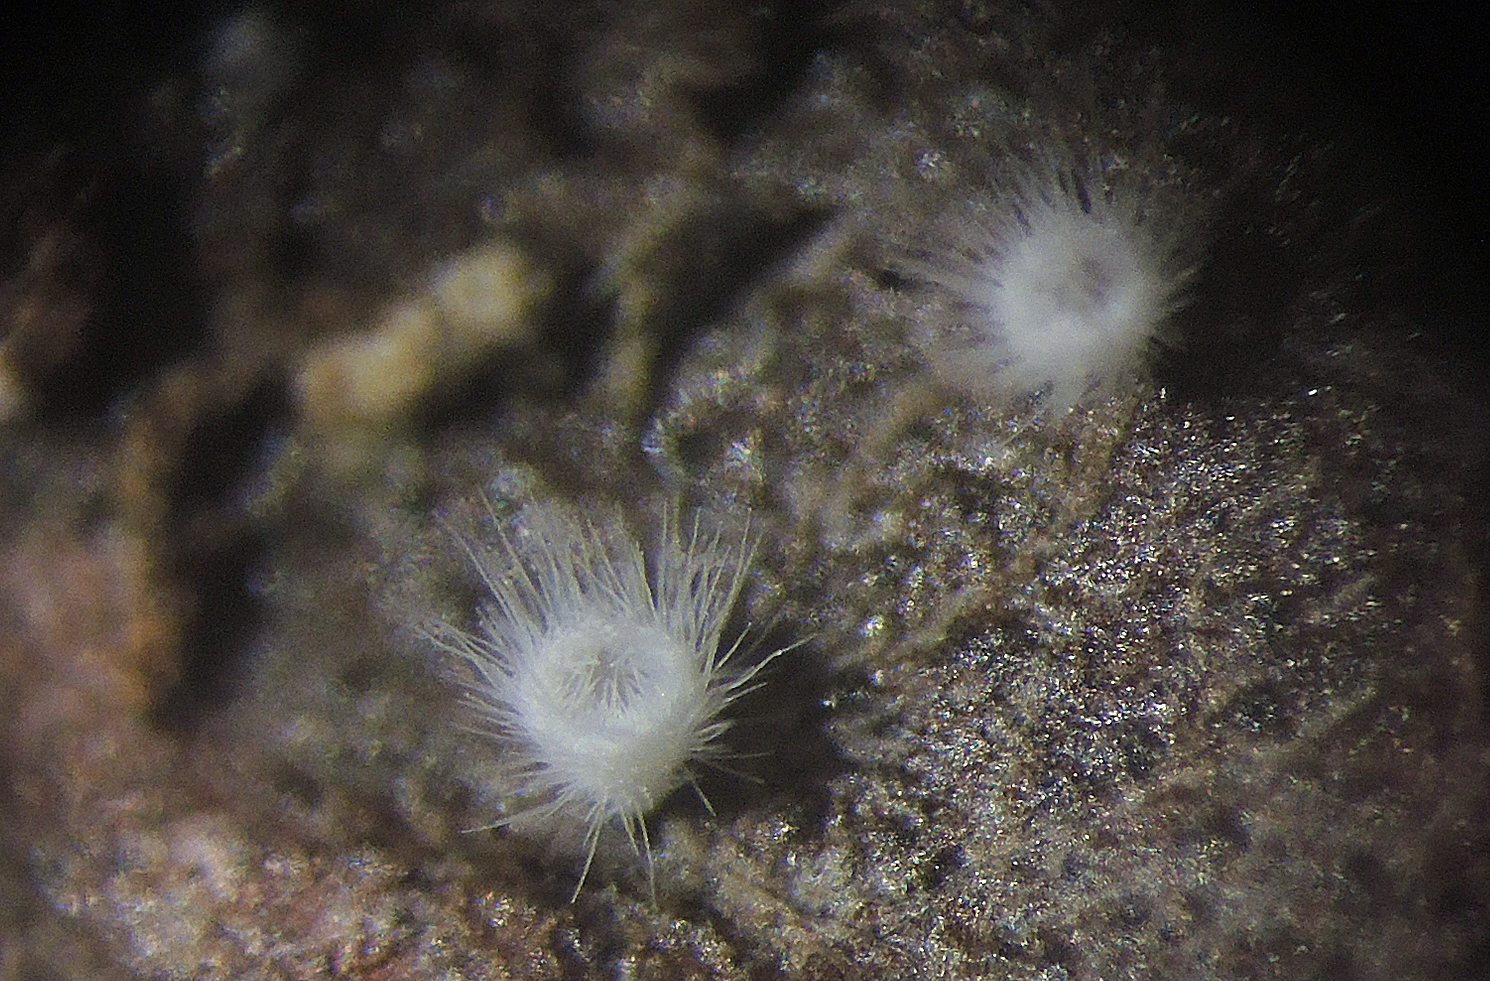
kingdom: Fungi
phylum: Basidiomycota
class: Agaricomycetes
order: Agaricales
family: Cyphellaceae
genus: Seticyphella
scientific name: Seticyphella tenuispora
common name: smalsporet hængeskål
